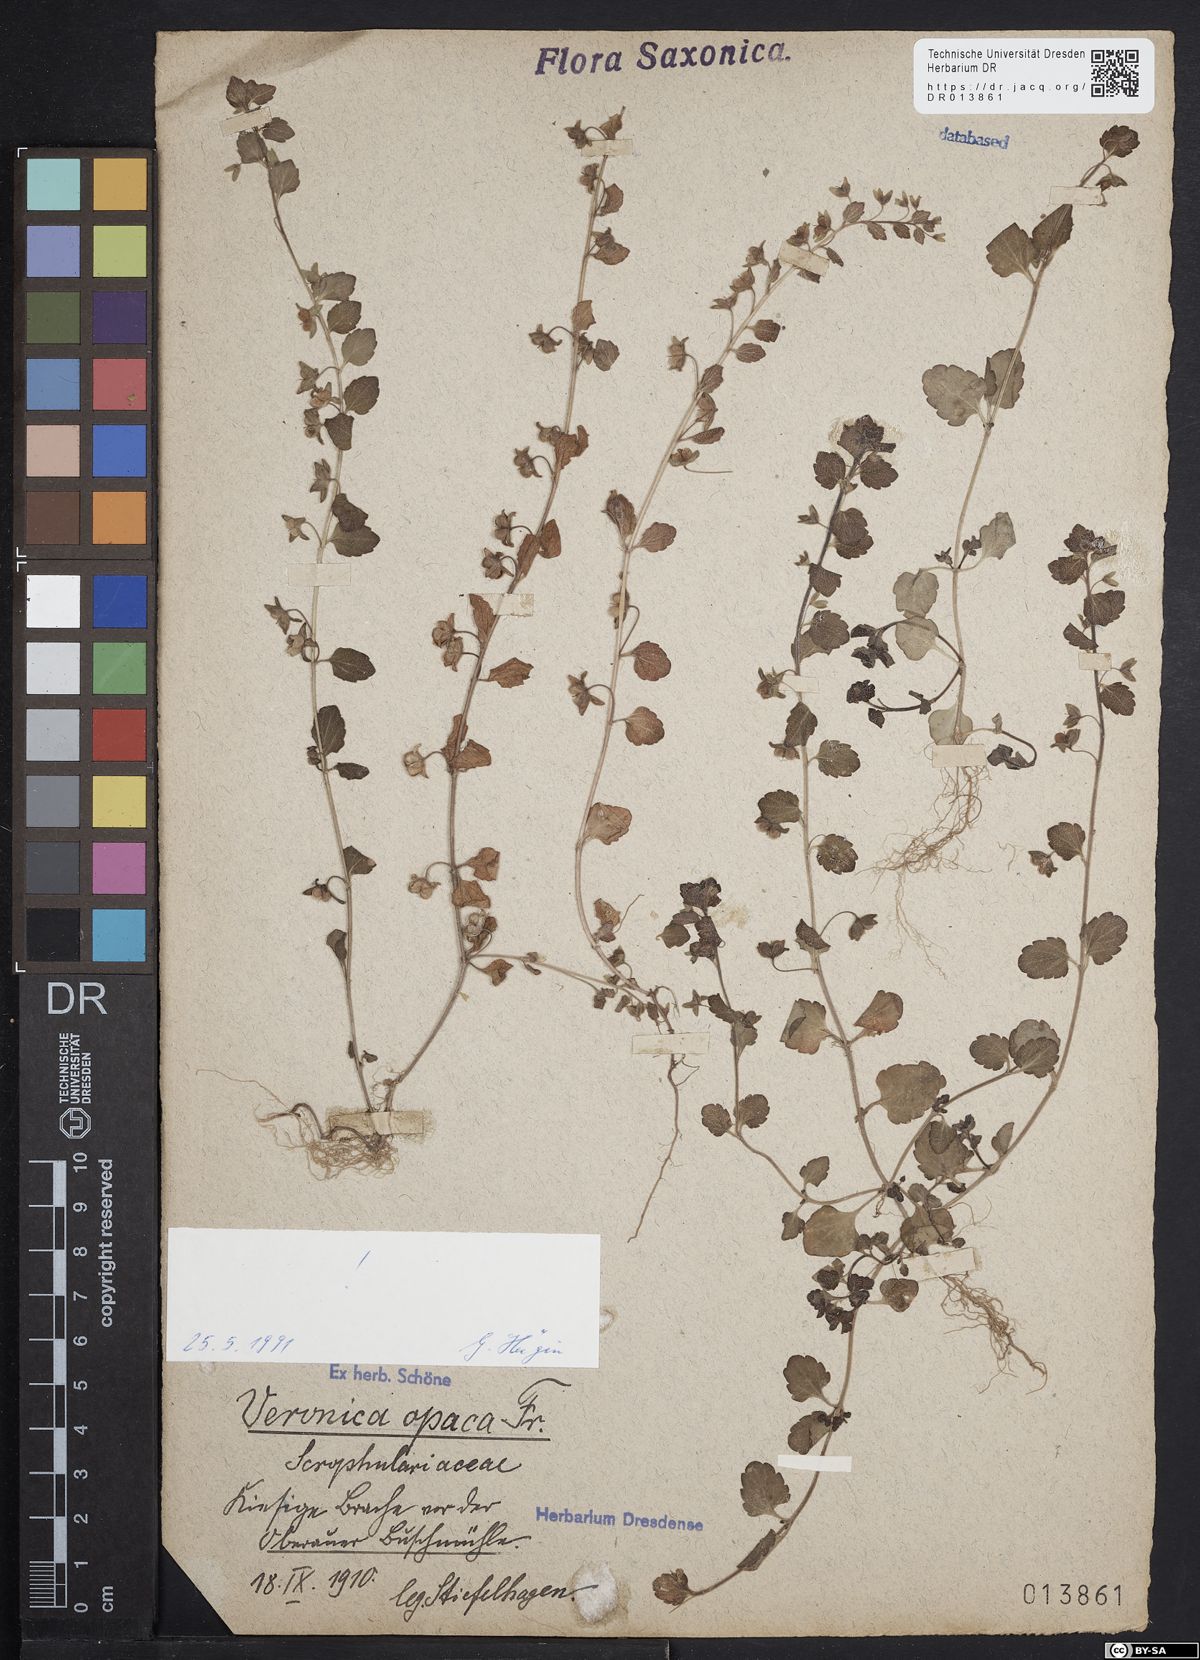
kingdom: Plantae
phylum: Tracheophyta
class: Magnoliopsida
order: Lamiales
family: Plantaginaceae
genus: Veronica
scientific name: Veronica opaca
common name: Dark speedwell
